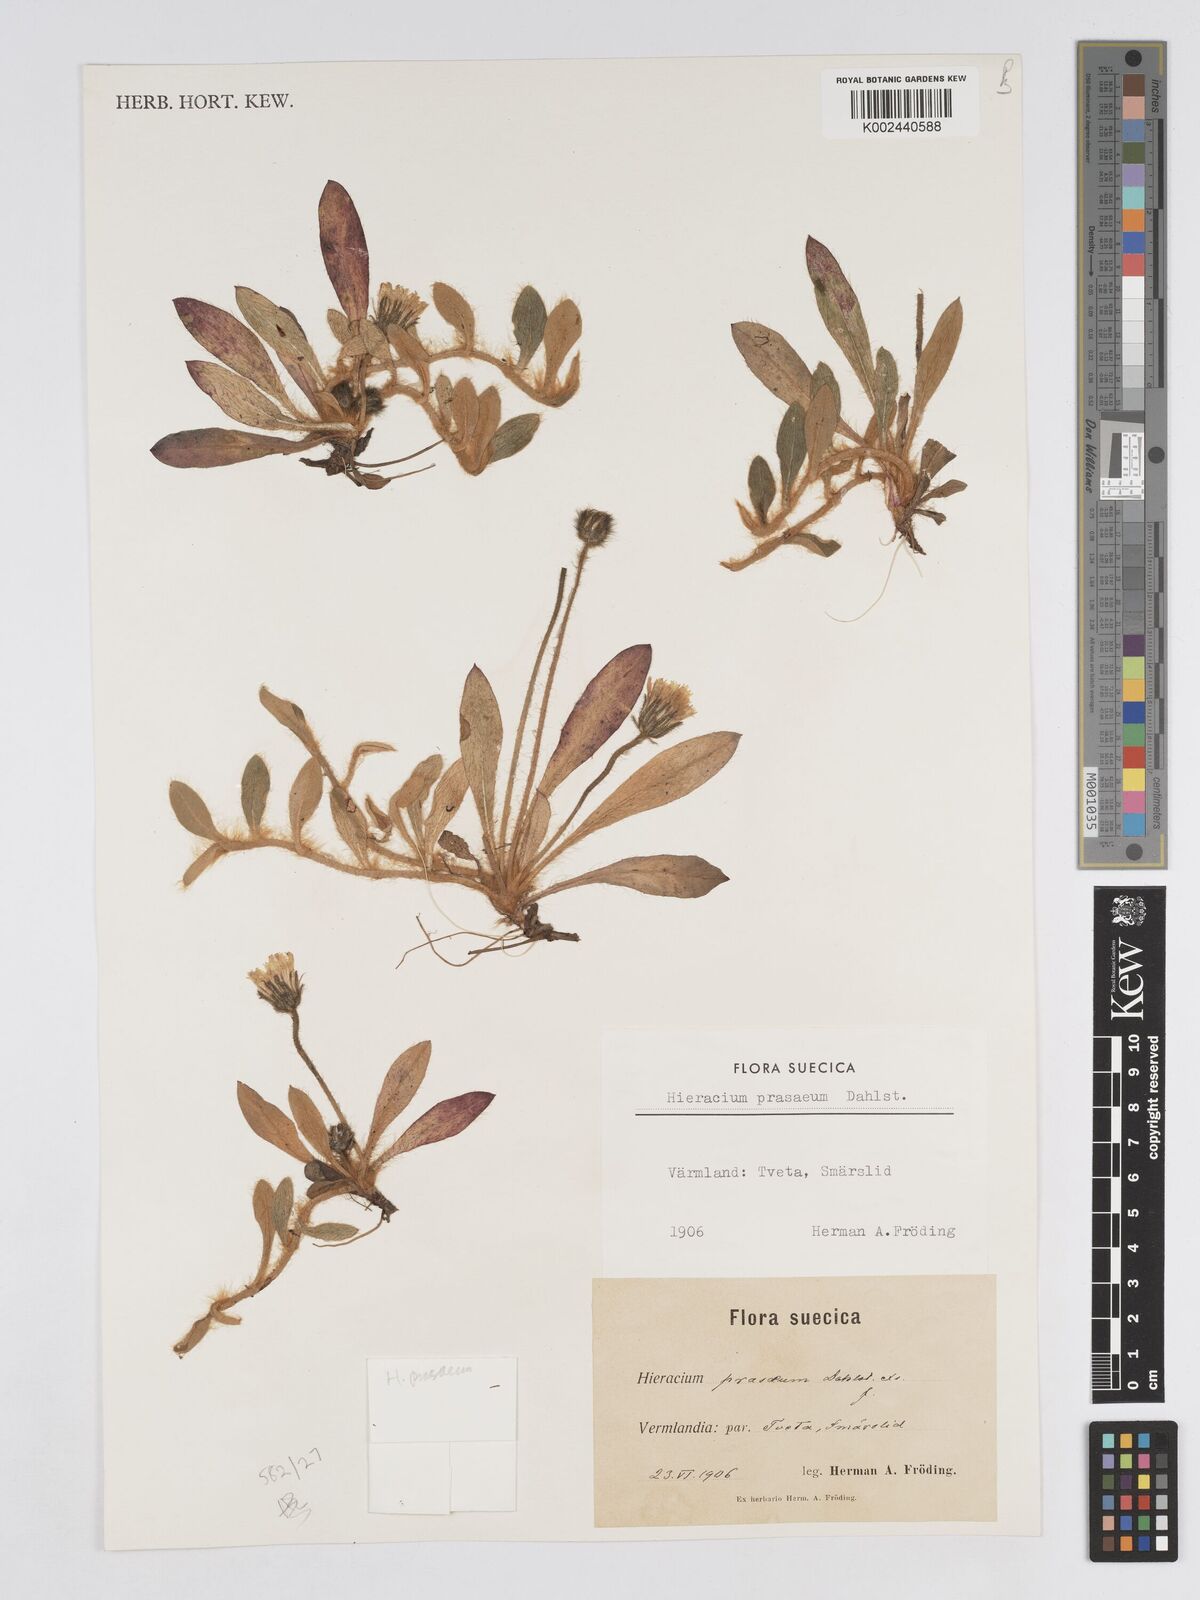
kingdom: Plantae
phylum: Tracheophyta
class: Magnoliopsida
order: Asterales
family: Asteraceae
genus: Pilosella
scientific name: Pilosella longisquama
